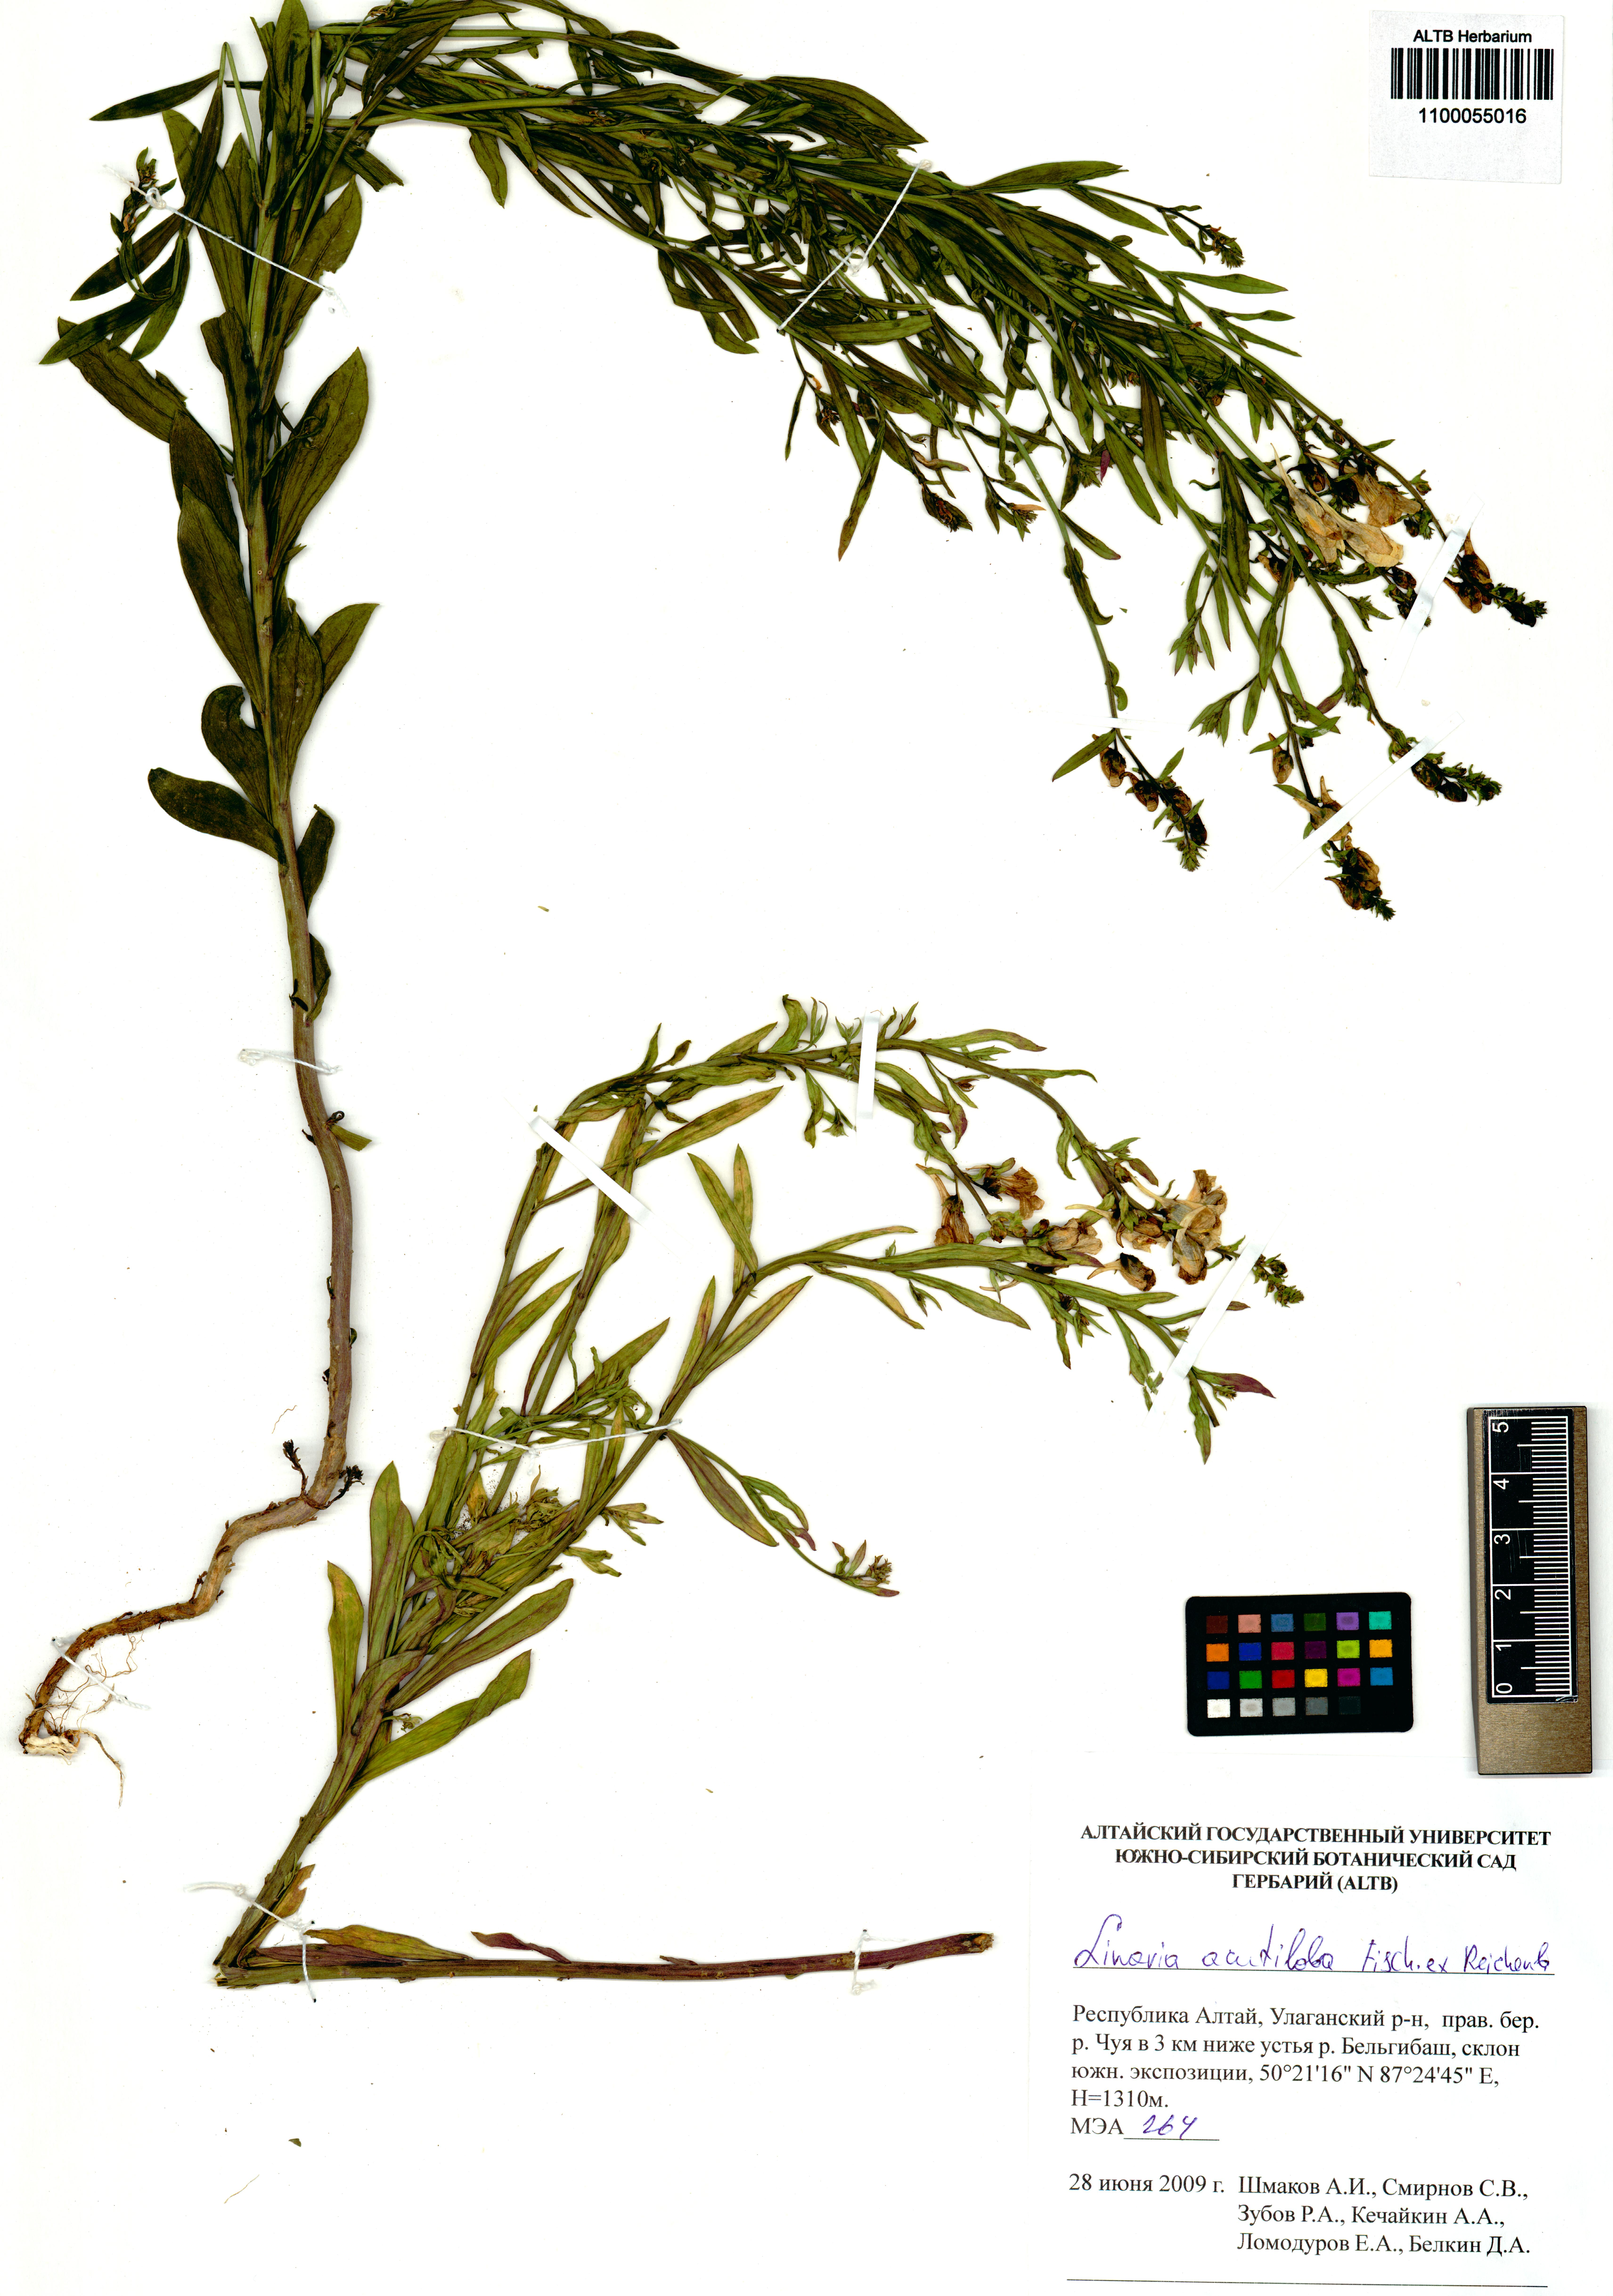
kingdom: Plantae
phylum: Tracheophyta
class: Magnoliopsida
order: Lamiales
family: Plantaginaceae
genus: Linaria
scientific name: Linaria acutiloba
